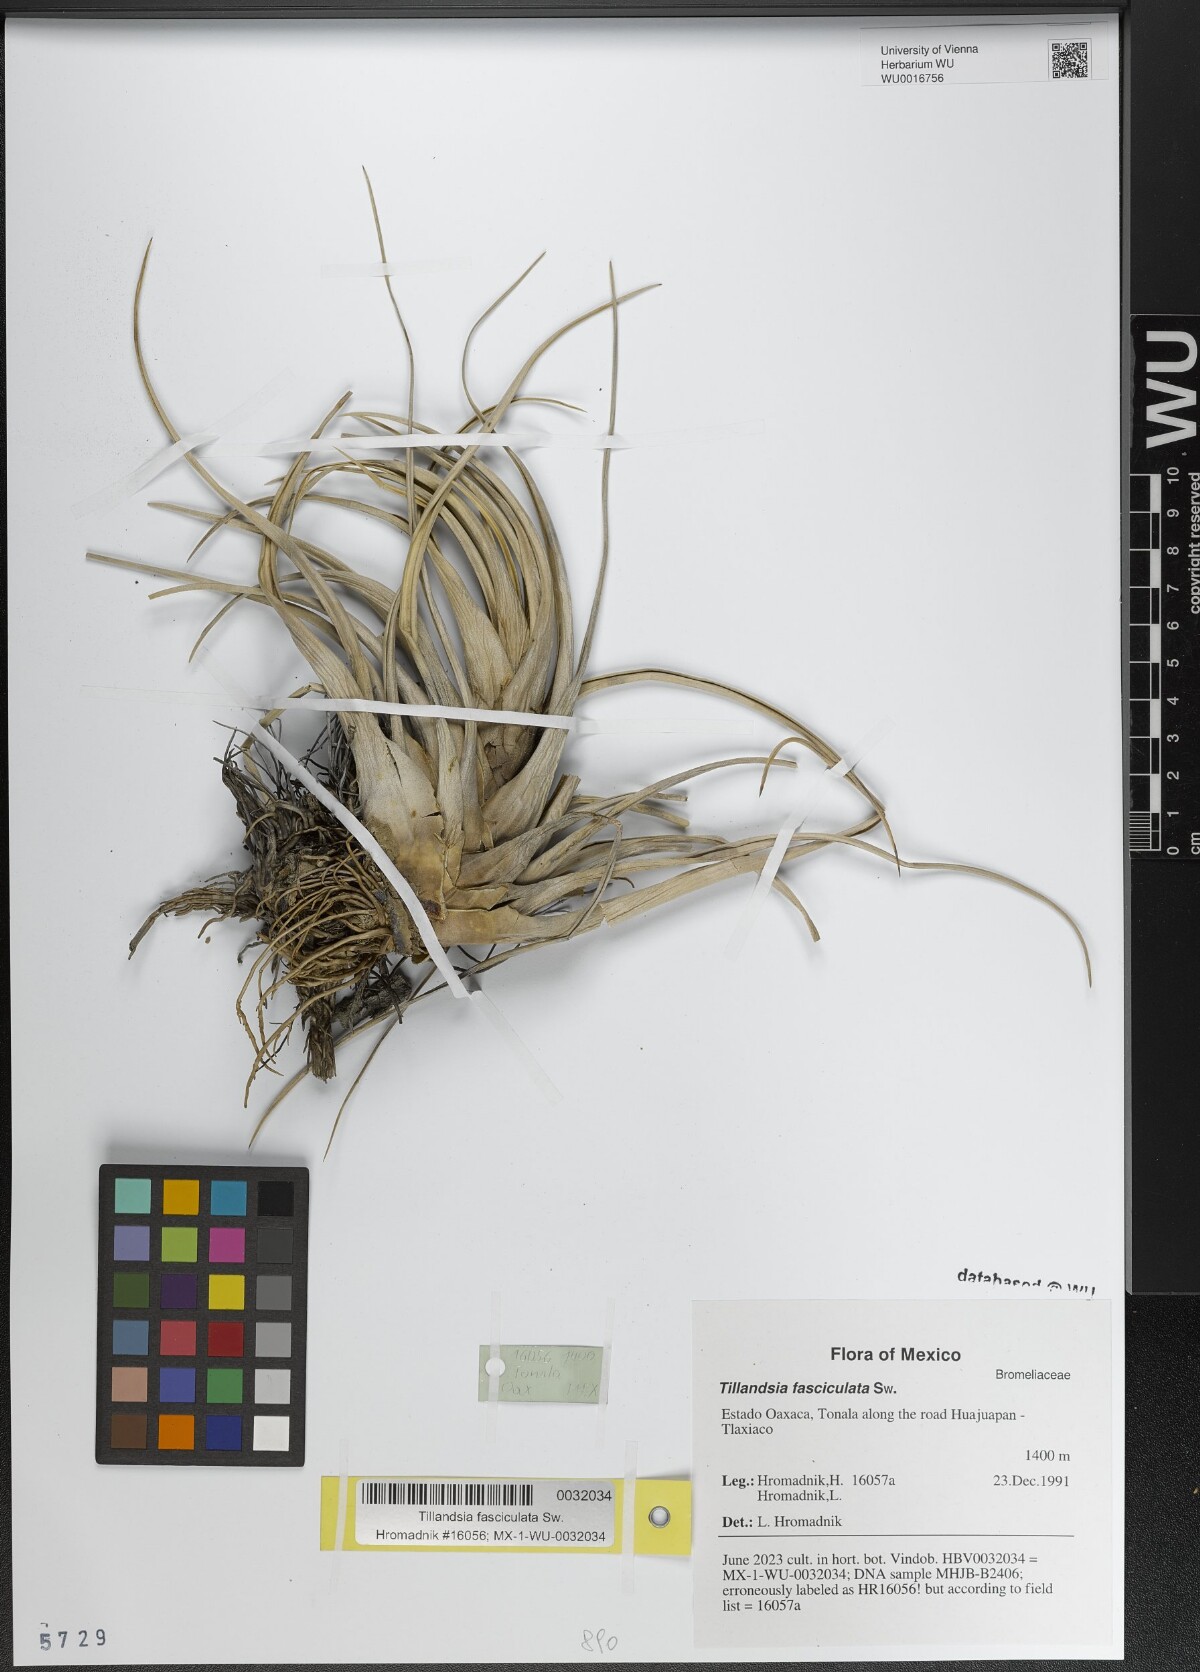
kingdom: Plantae
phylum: Tracheophyta
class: Liliopsida
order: Poales
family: Bromeliaceae
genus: Tillandsia
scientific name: Tillandsia fasciculata
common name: Giant airplant
